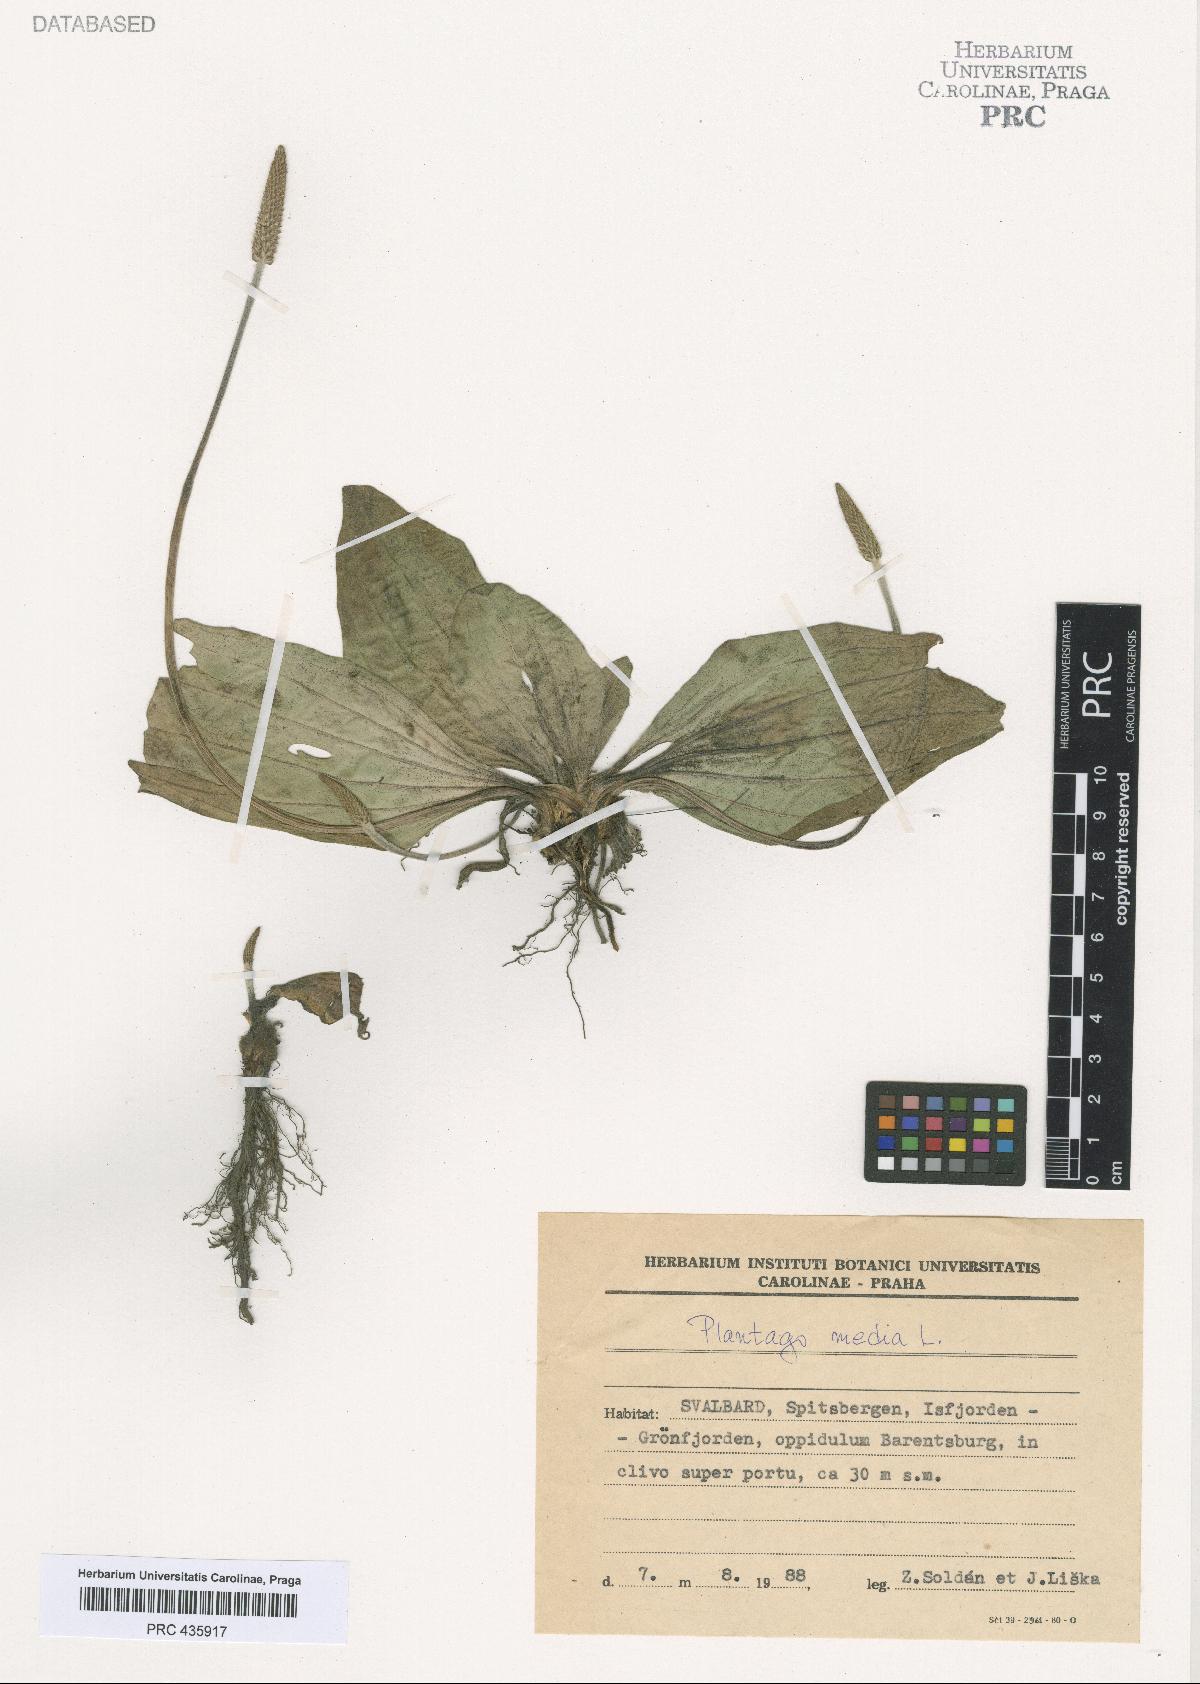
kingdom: Plantae
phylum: Tracheophyta
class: Magnoliopsida
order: Lamiales
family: Plantaginaceae
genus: Plantago
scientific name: Plantago media
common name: Hoary plantain
